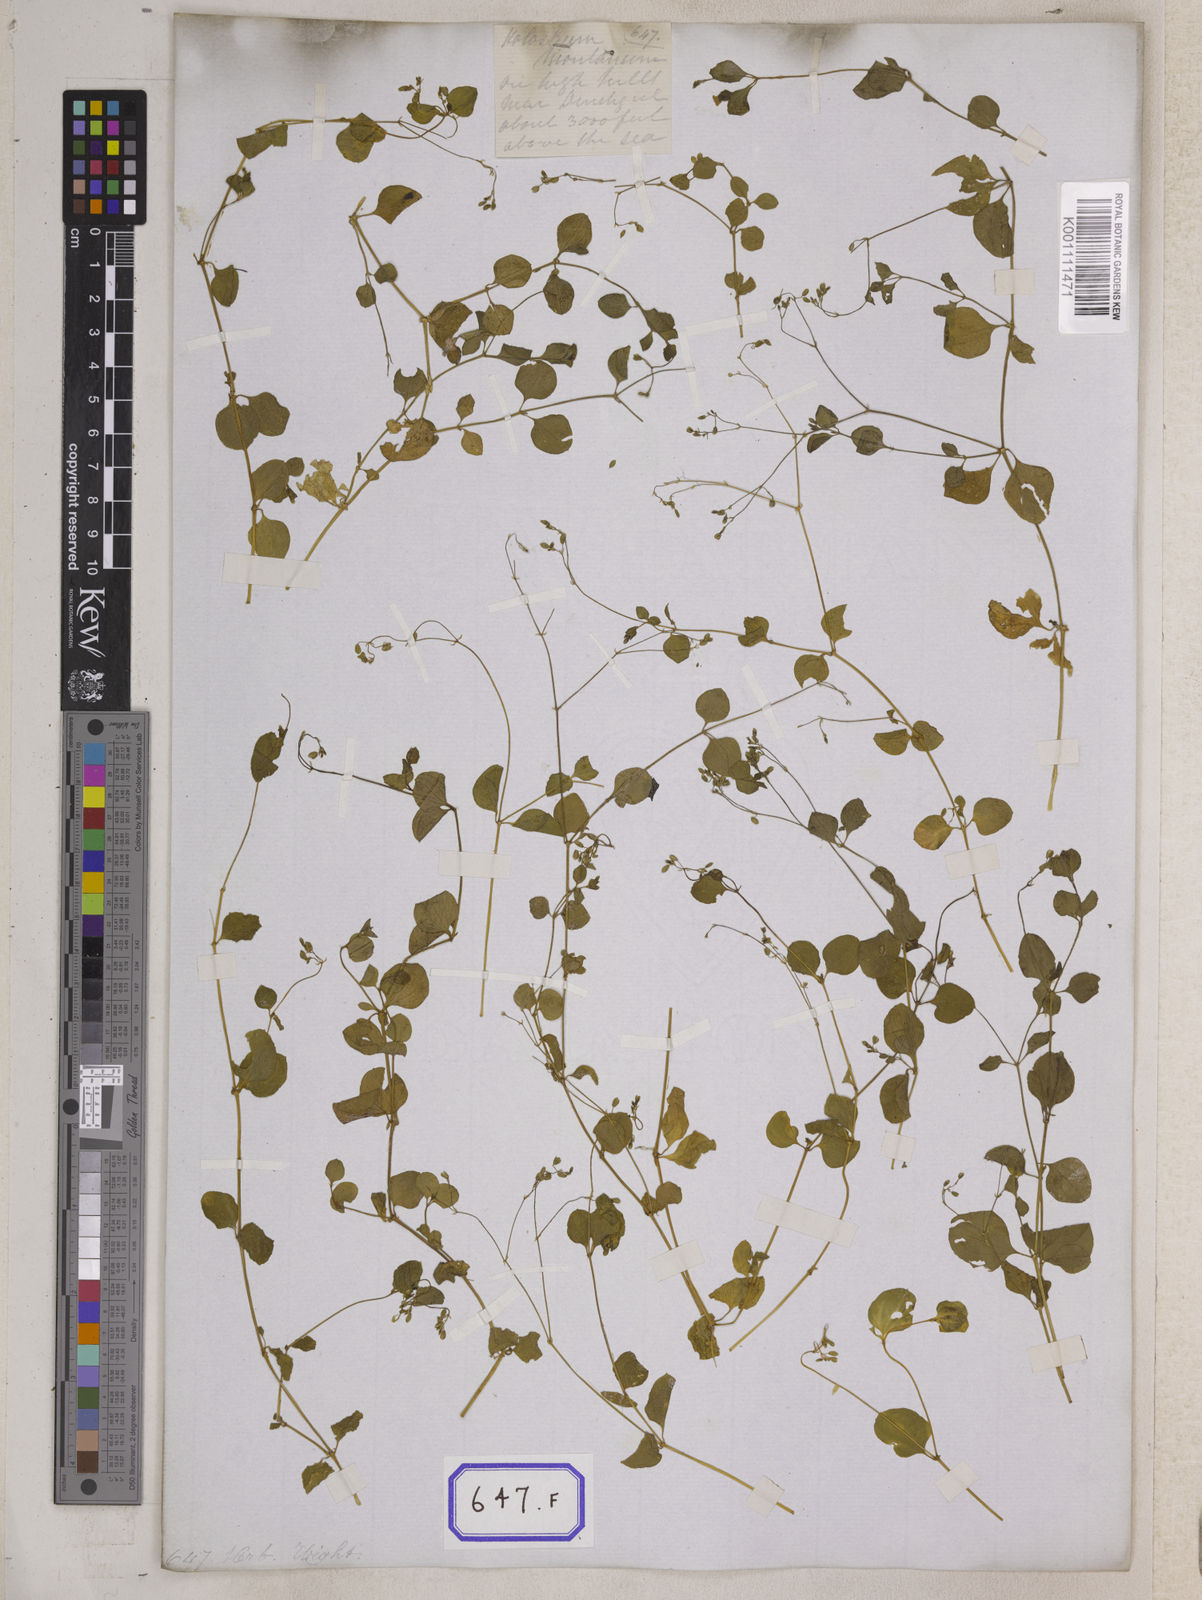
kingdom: Plantae
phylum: Tracheophyta
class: Magnoliopsida
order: Caryophyllales
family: Caryophyllaceae
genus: Drymaria
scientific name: Drymaria
